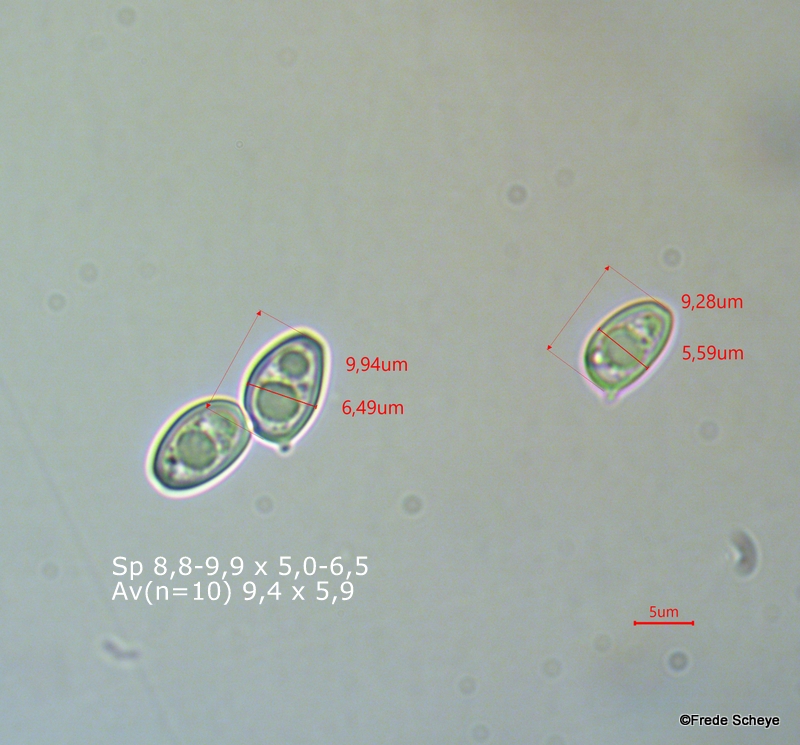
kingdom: Fungi
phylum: Basidiomycota
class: Agaricomycetes
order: Agaricales
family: Agaricaceae
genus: Chlorophyllum
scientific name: Chlorophyllum olivieri
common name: almindelig rabarberhat
